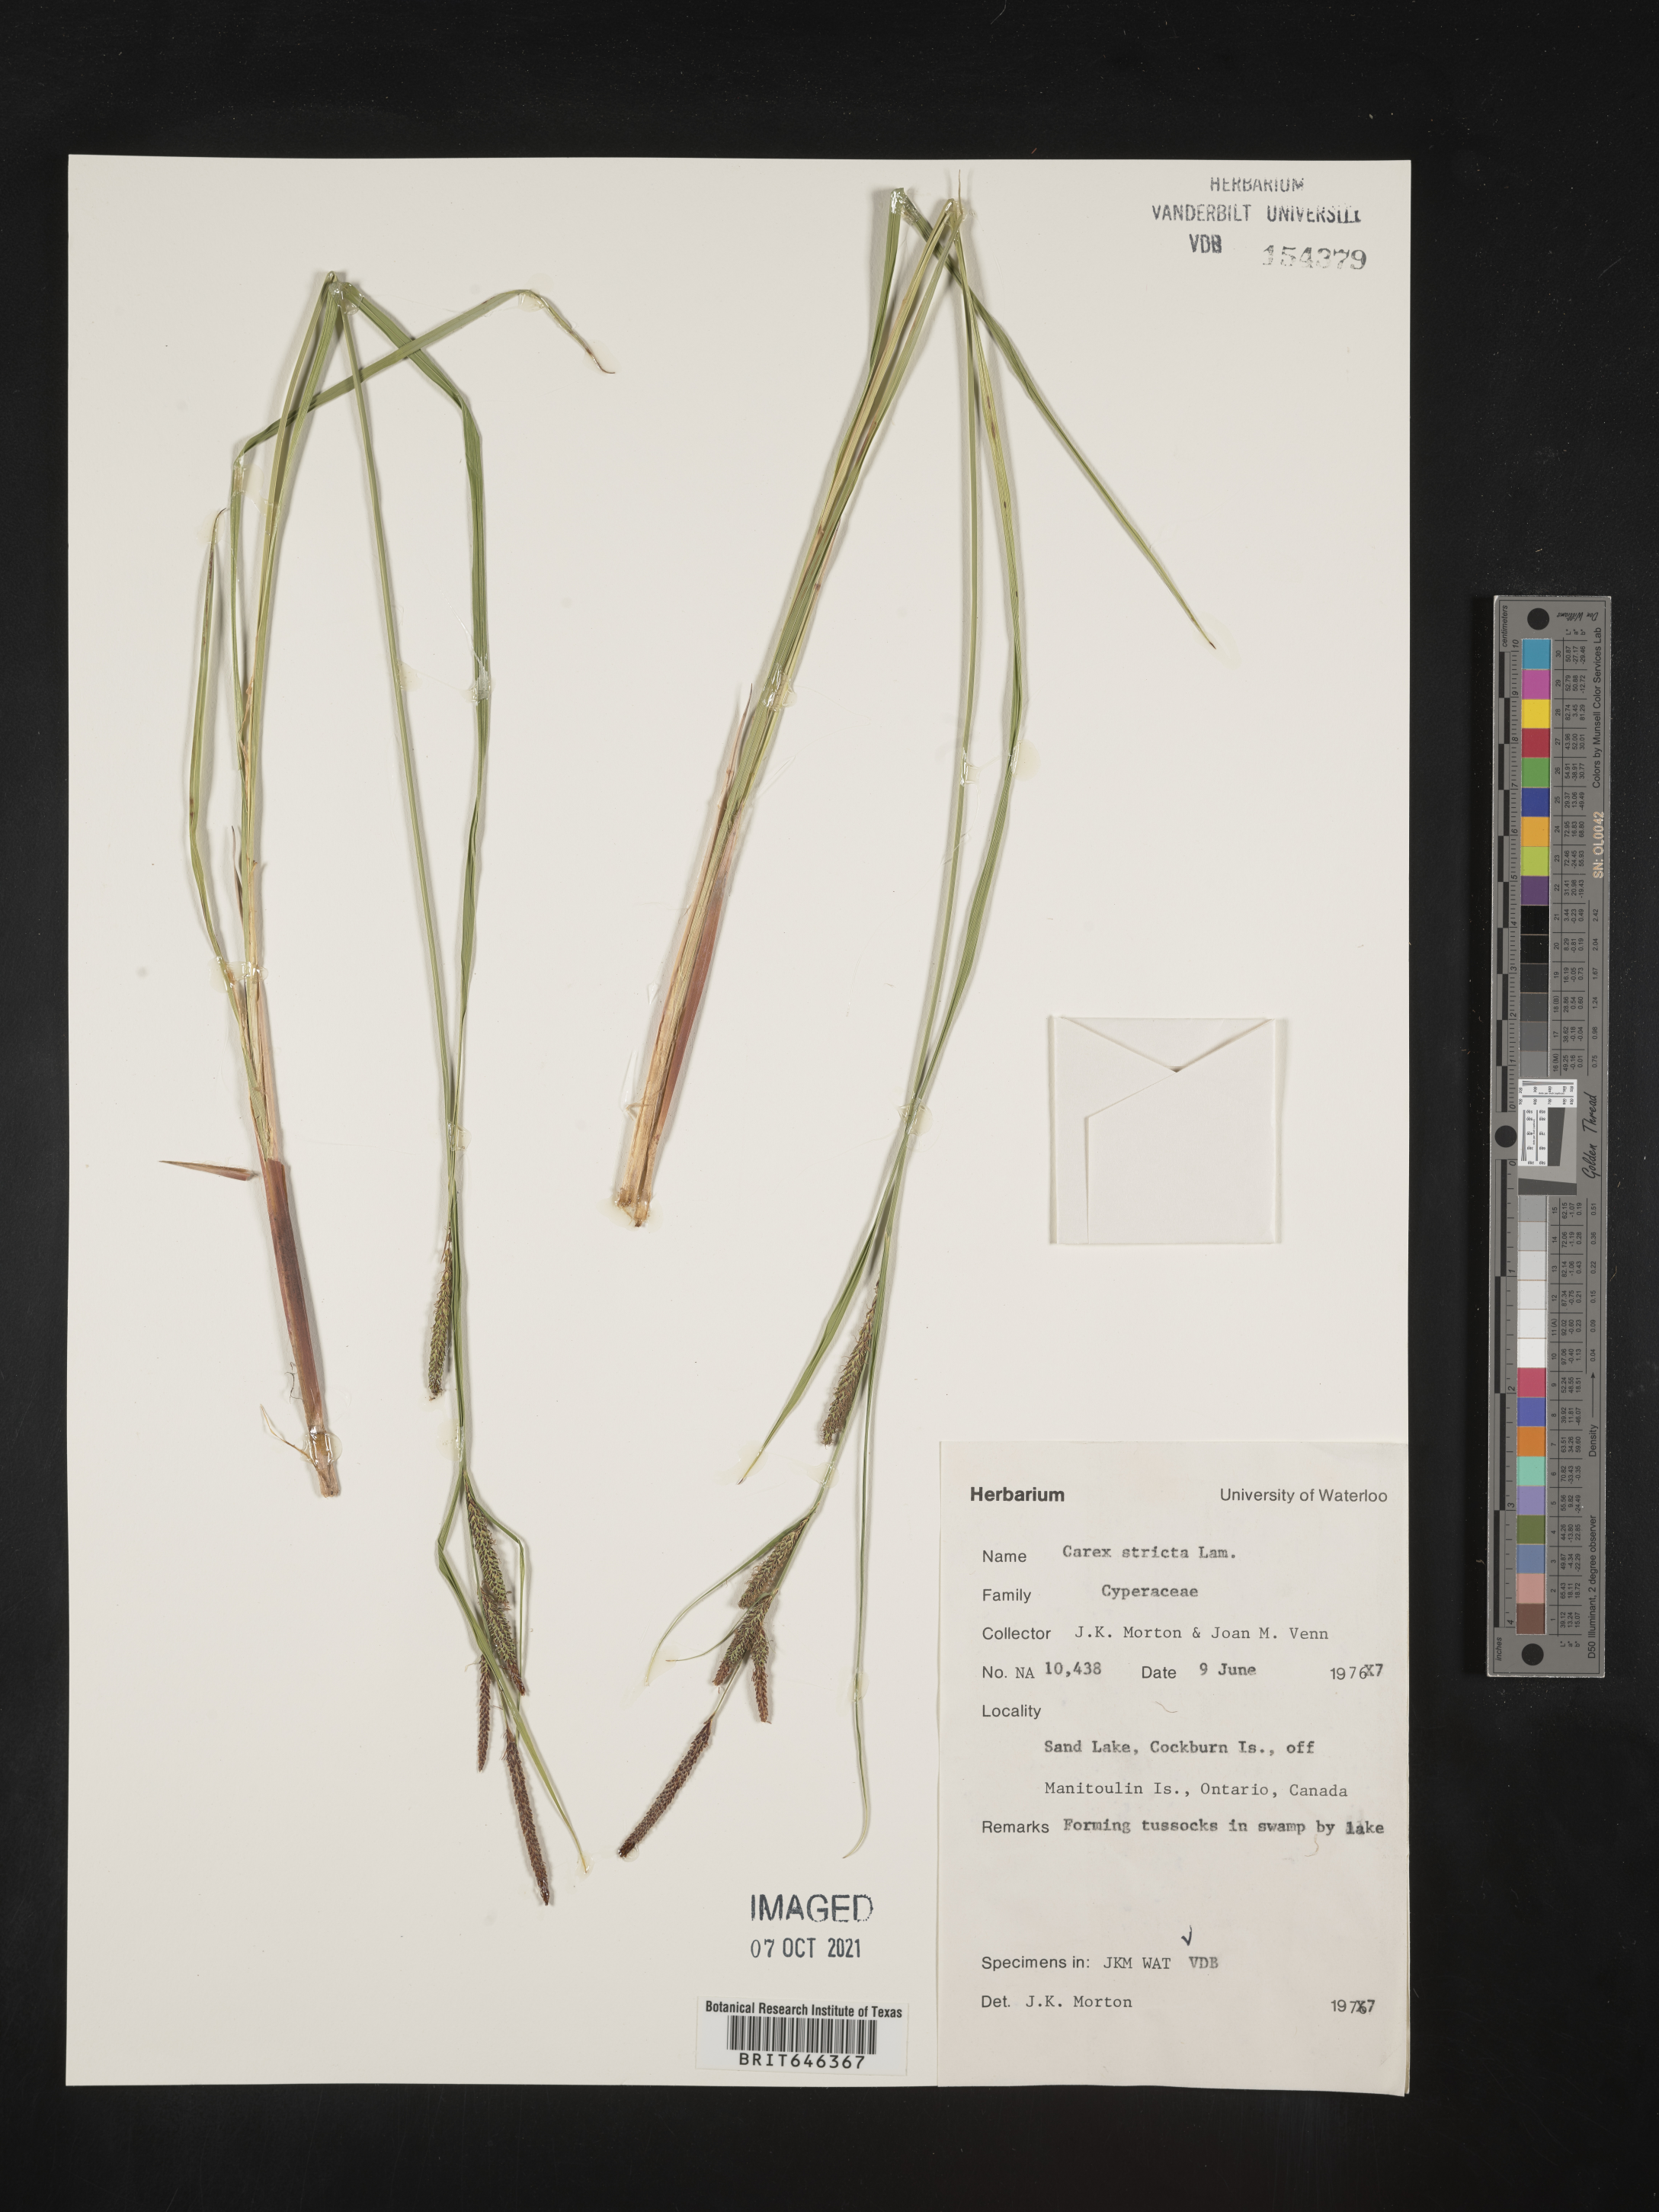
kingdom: Plantae
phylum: Tracheophyta
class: Liliopsida
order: Poales
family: Cyperaceae
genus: Carex
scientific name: Carex stricta
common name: Hummock sedge
